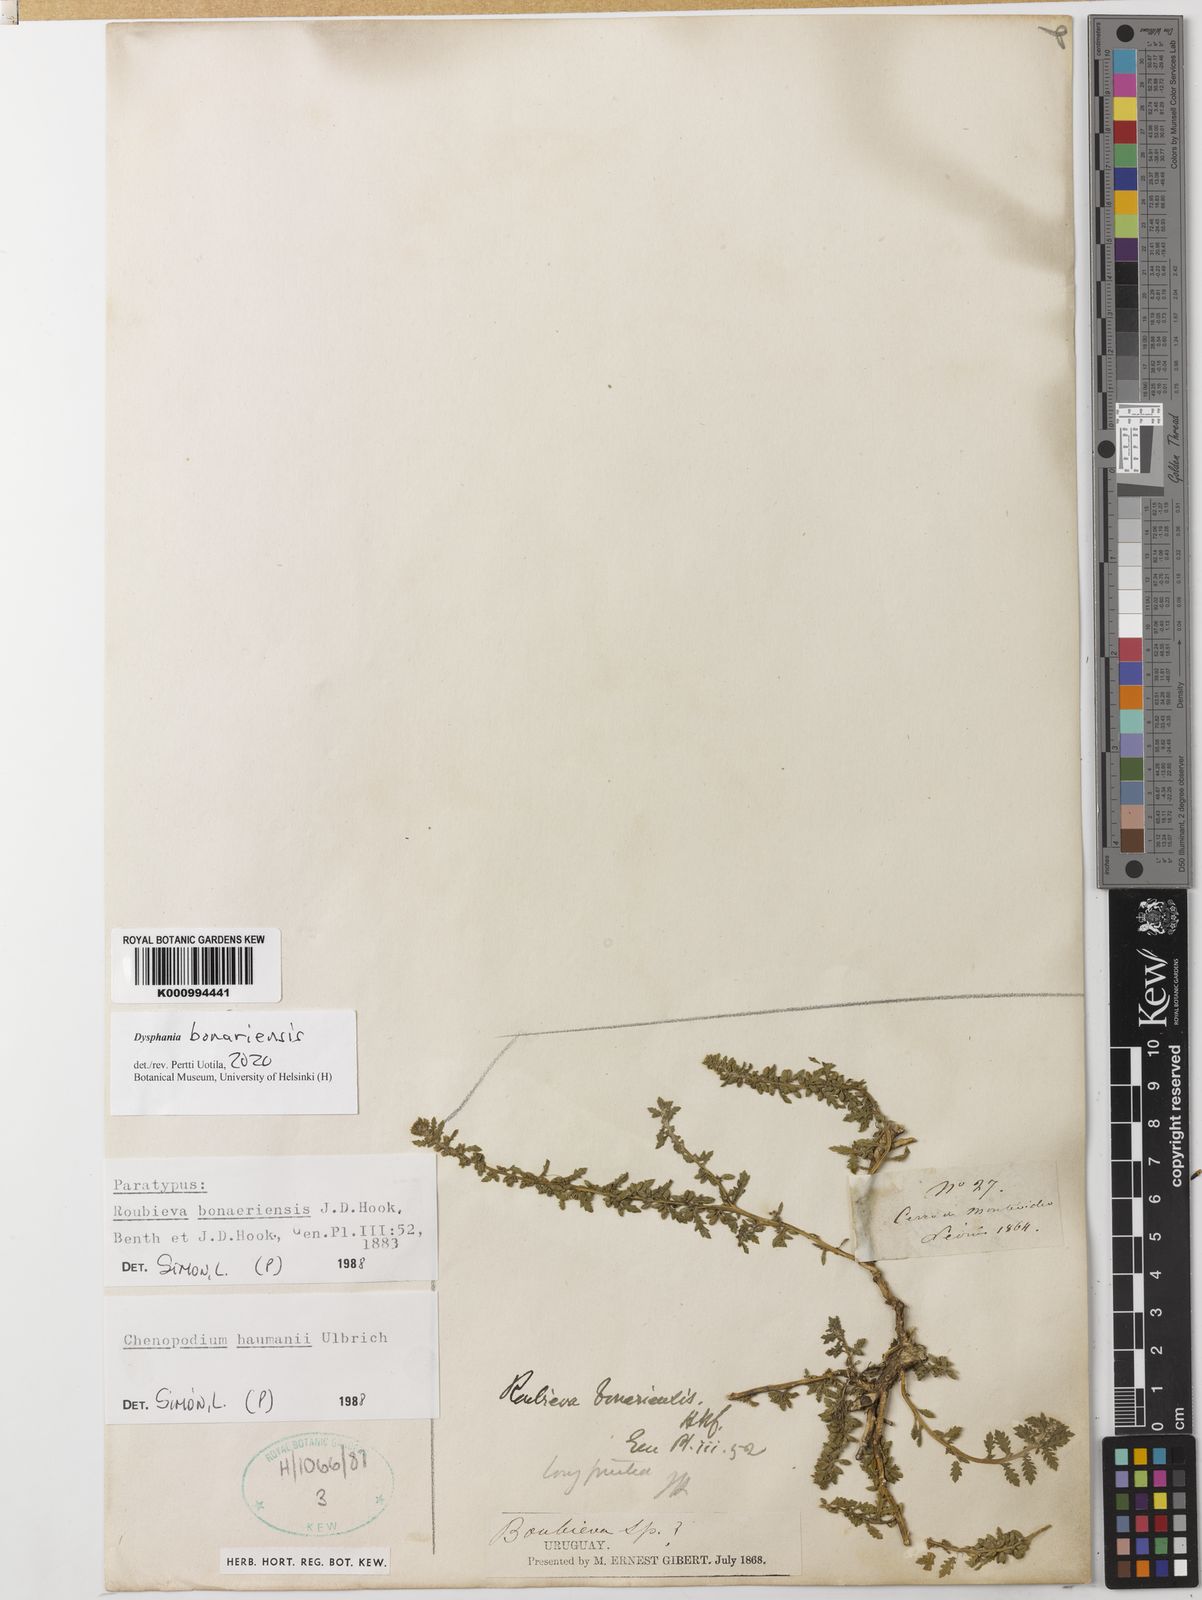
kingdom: Plantae
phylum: Tracheophyta
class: Magnoliopsida
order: Caryophyllales
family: Amaranthaceae
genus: Dysphania
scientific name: Dysphania bonariensis
